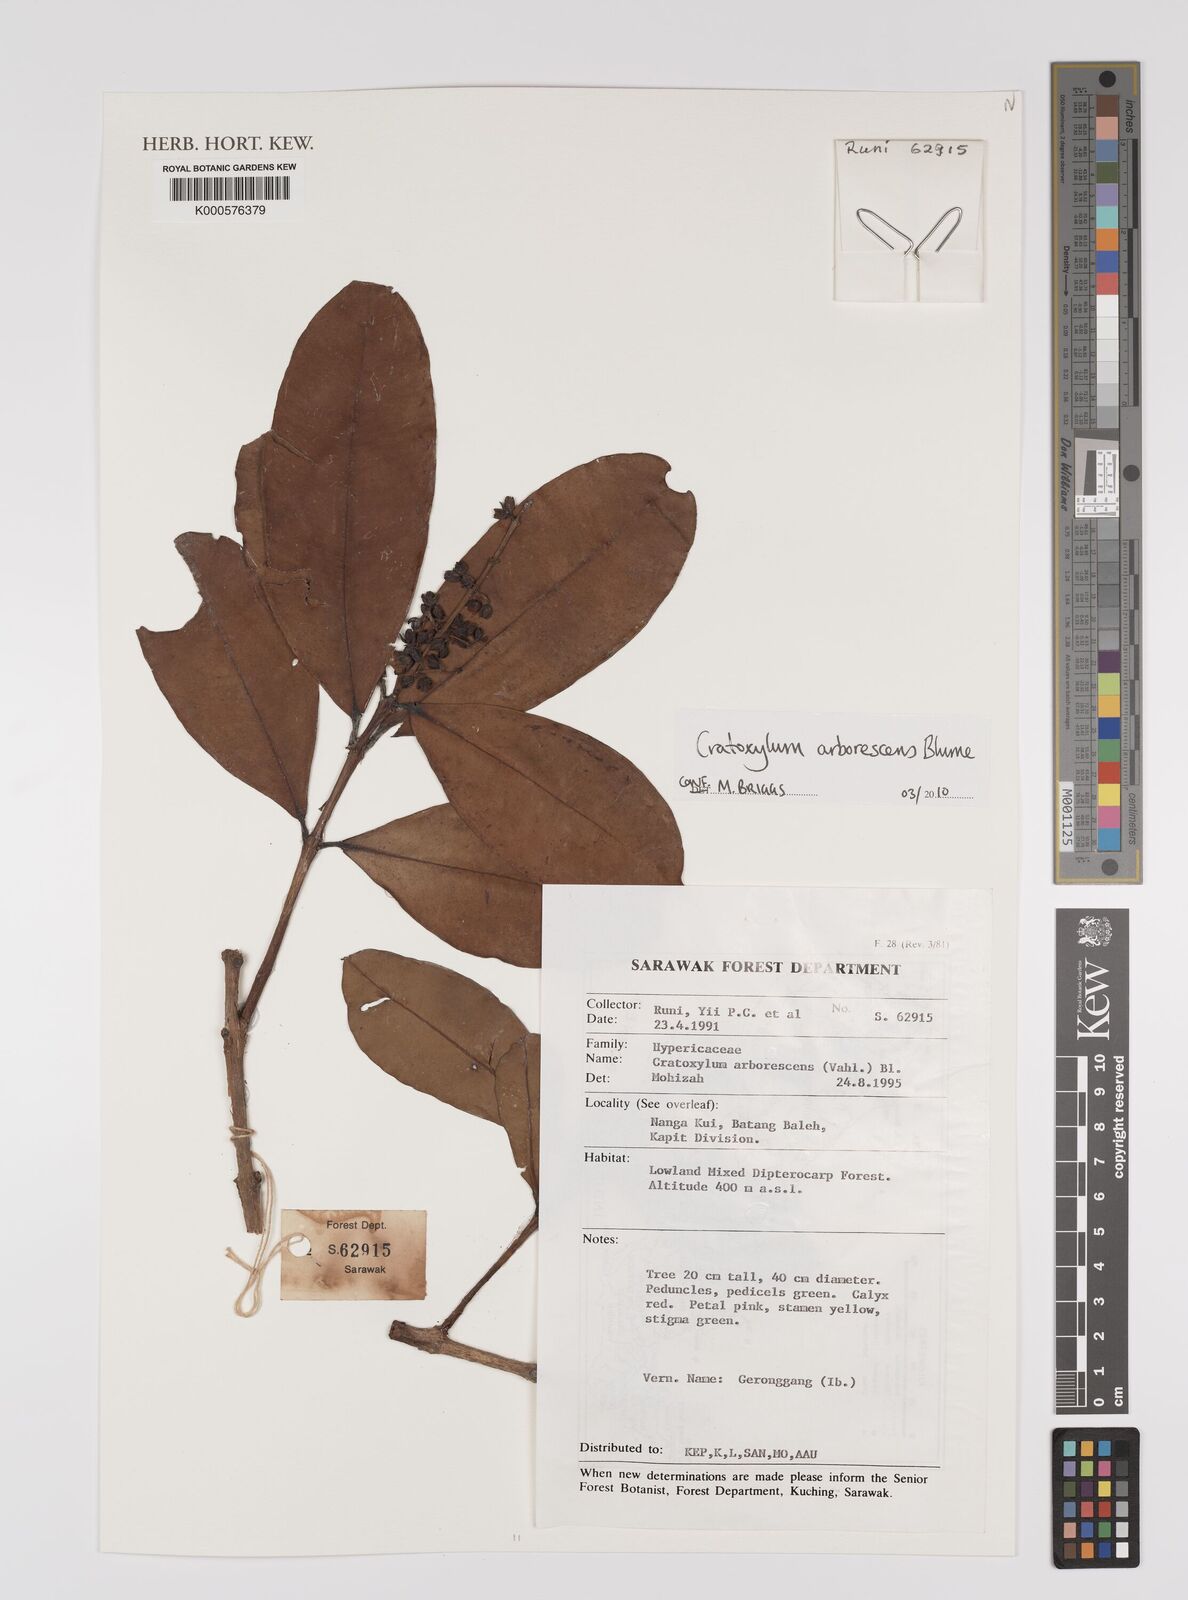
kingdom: Plantae
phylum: Tracheophyta
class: Magnoliopsida
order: Malpighiales
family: Hypericaceae
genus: Cratoxylum
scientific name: Cratoxylum arborescens
